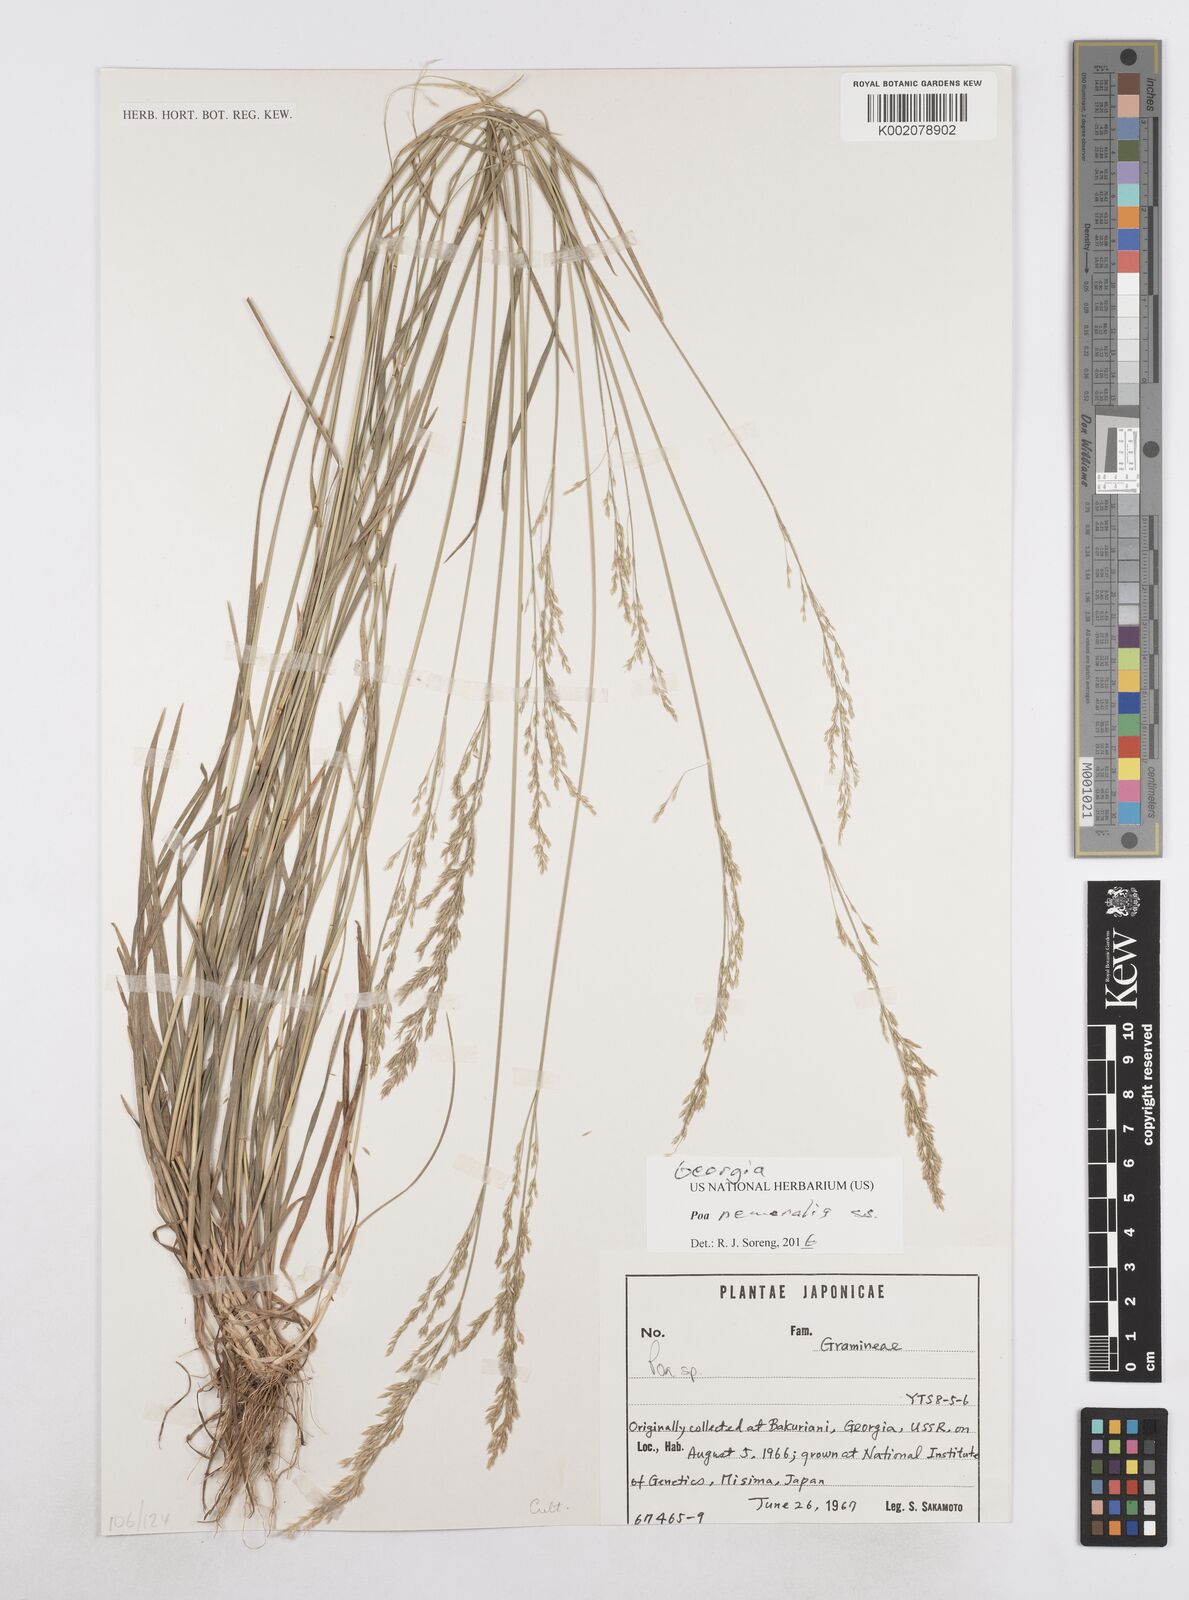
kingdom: Plantae
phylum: Tracheophyta
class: Liliopsida
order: Poales
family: Poaceae
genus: Poa
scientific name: Poa nemoralis
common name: Wood bluegrass
